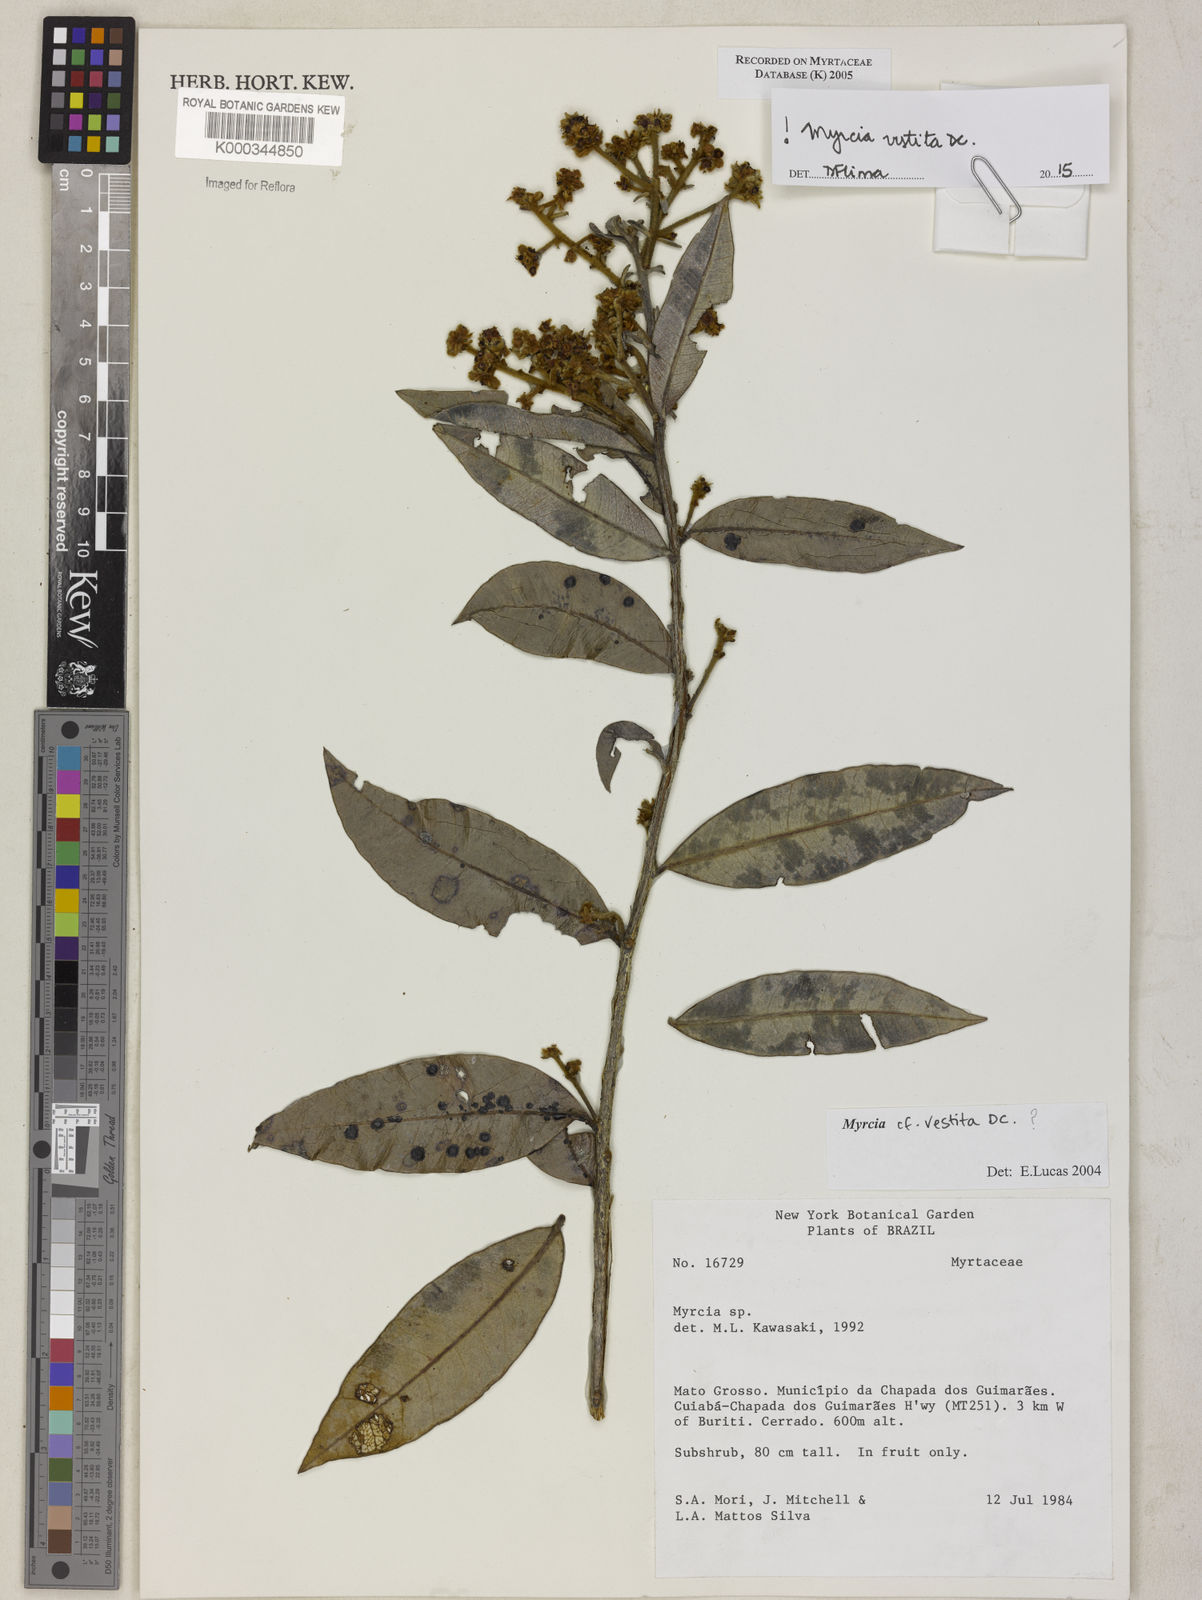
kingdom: Plantae
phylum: Tracheophyta
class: Magnoliopsida
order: Myrtales
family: Myrtaceae
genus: Myrcia
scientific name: Myrcia vestita
